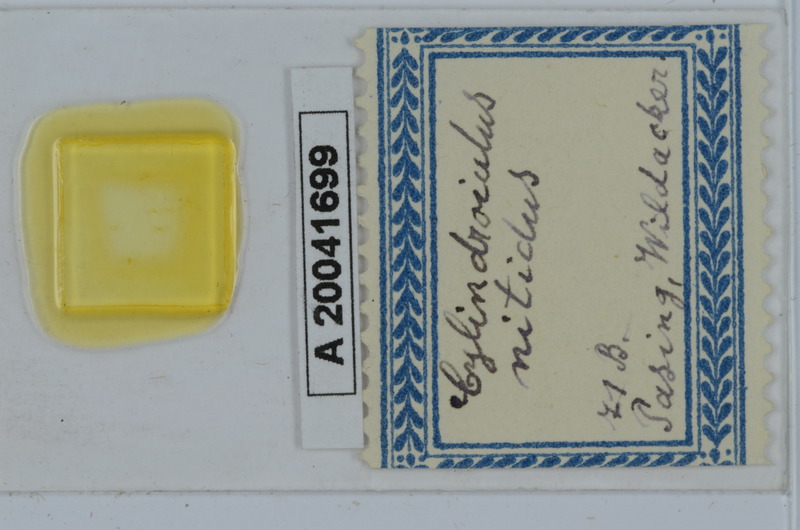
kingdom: Animalia
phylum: Arthropoda
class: Diplopoda
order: Julida
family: Julidae
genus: Allajulus
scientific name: Allajulus nitidus
